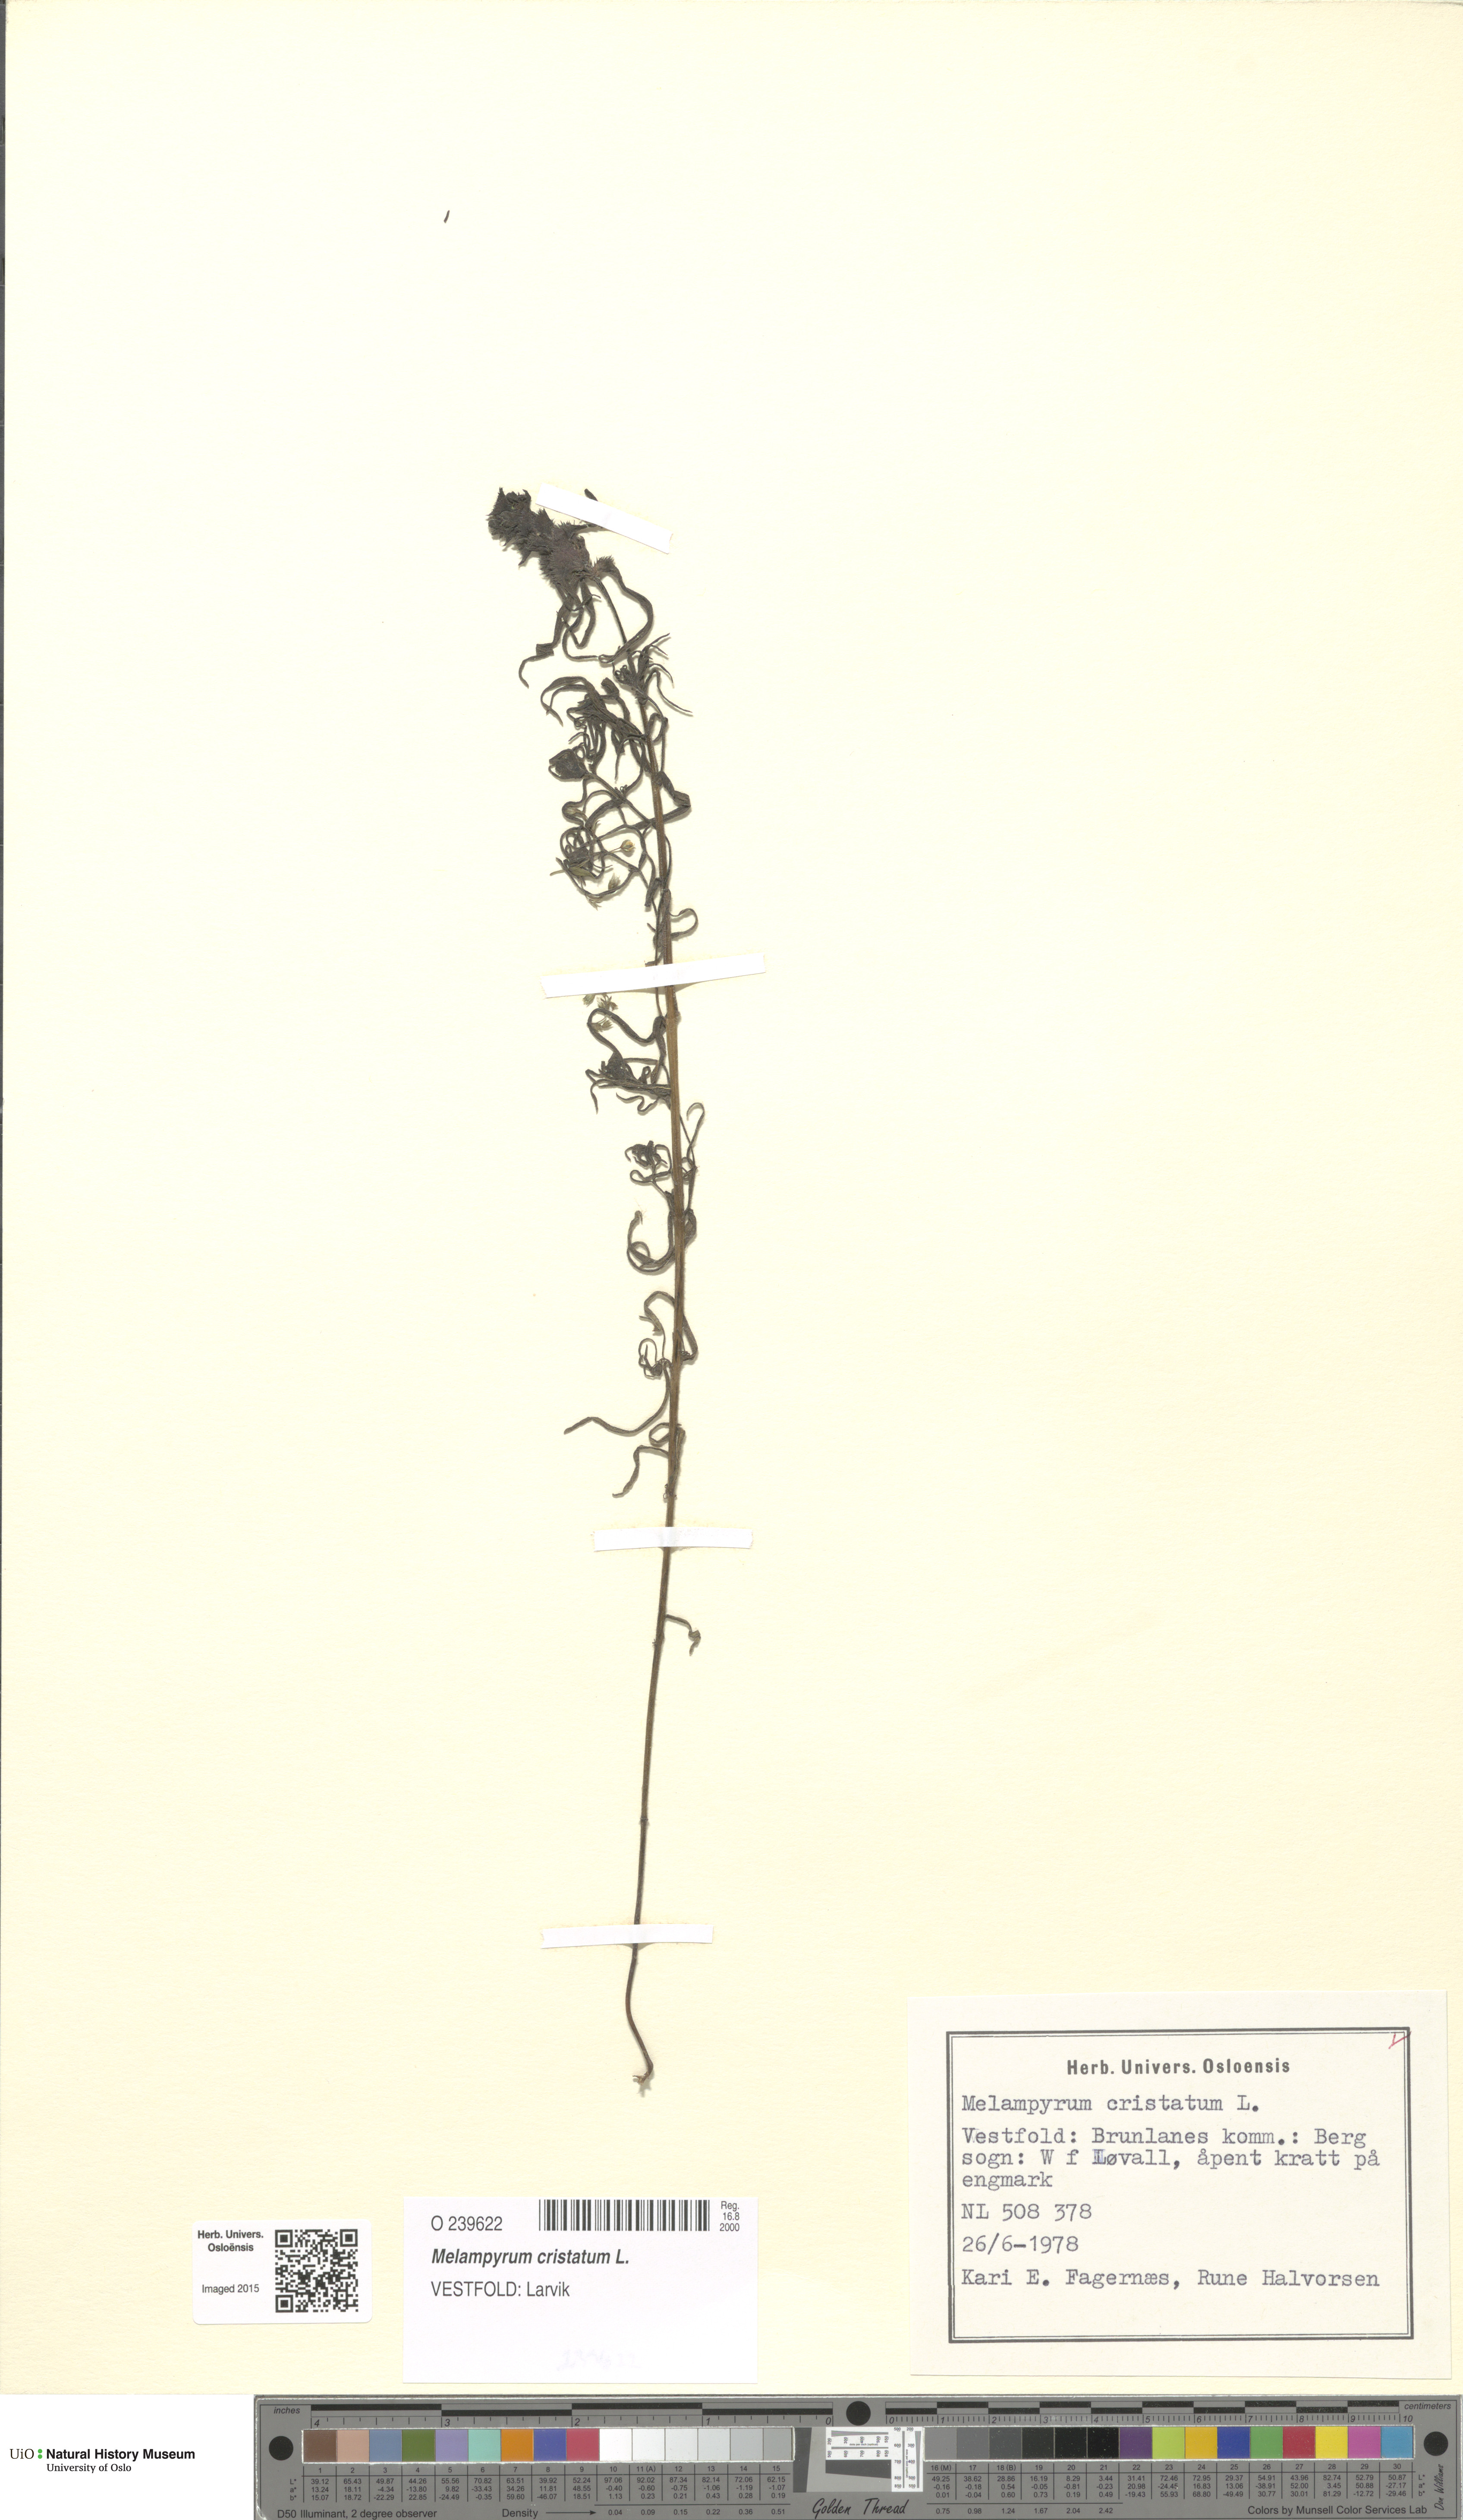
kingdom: Plantae
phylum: Tracheophyta
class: Magnoliopsida
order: Lamiales
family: Orobanchaceae
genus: Melampyrum
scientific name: Melampyrum cristatum
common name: Crested cow-wheat
